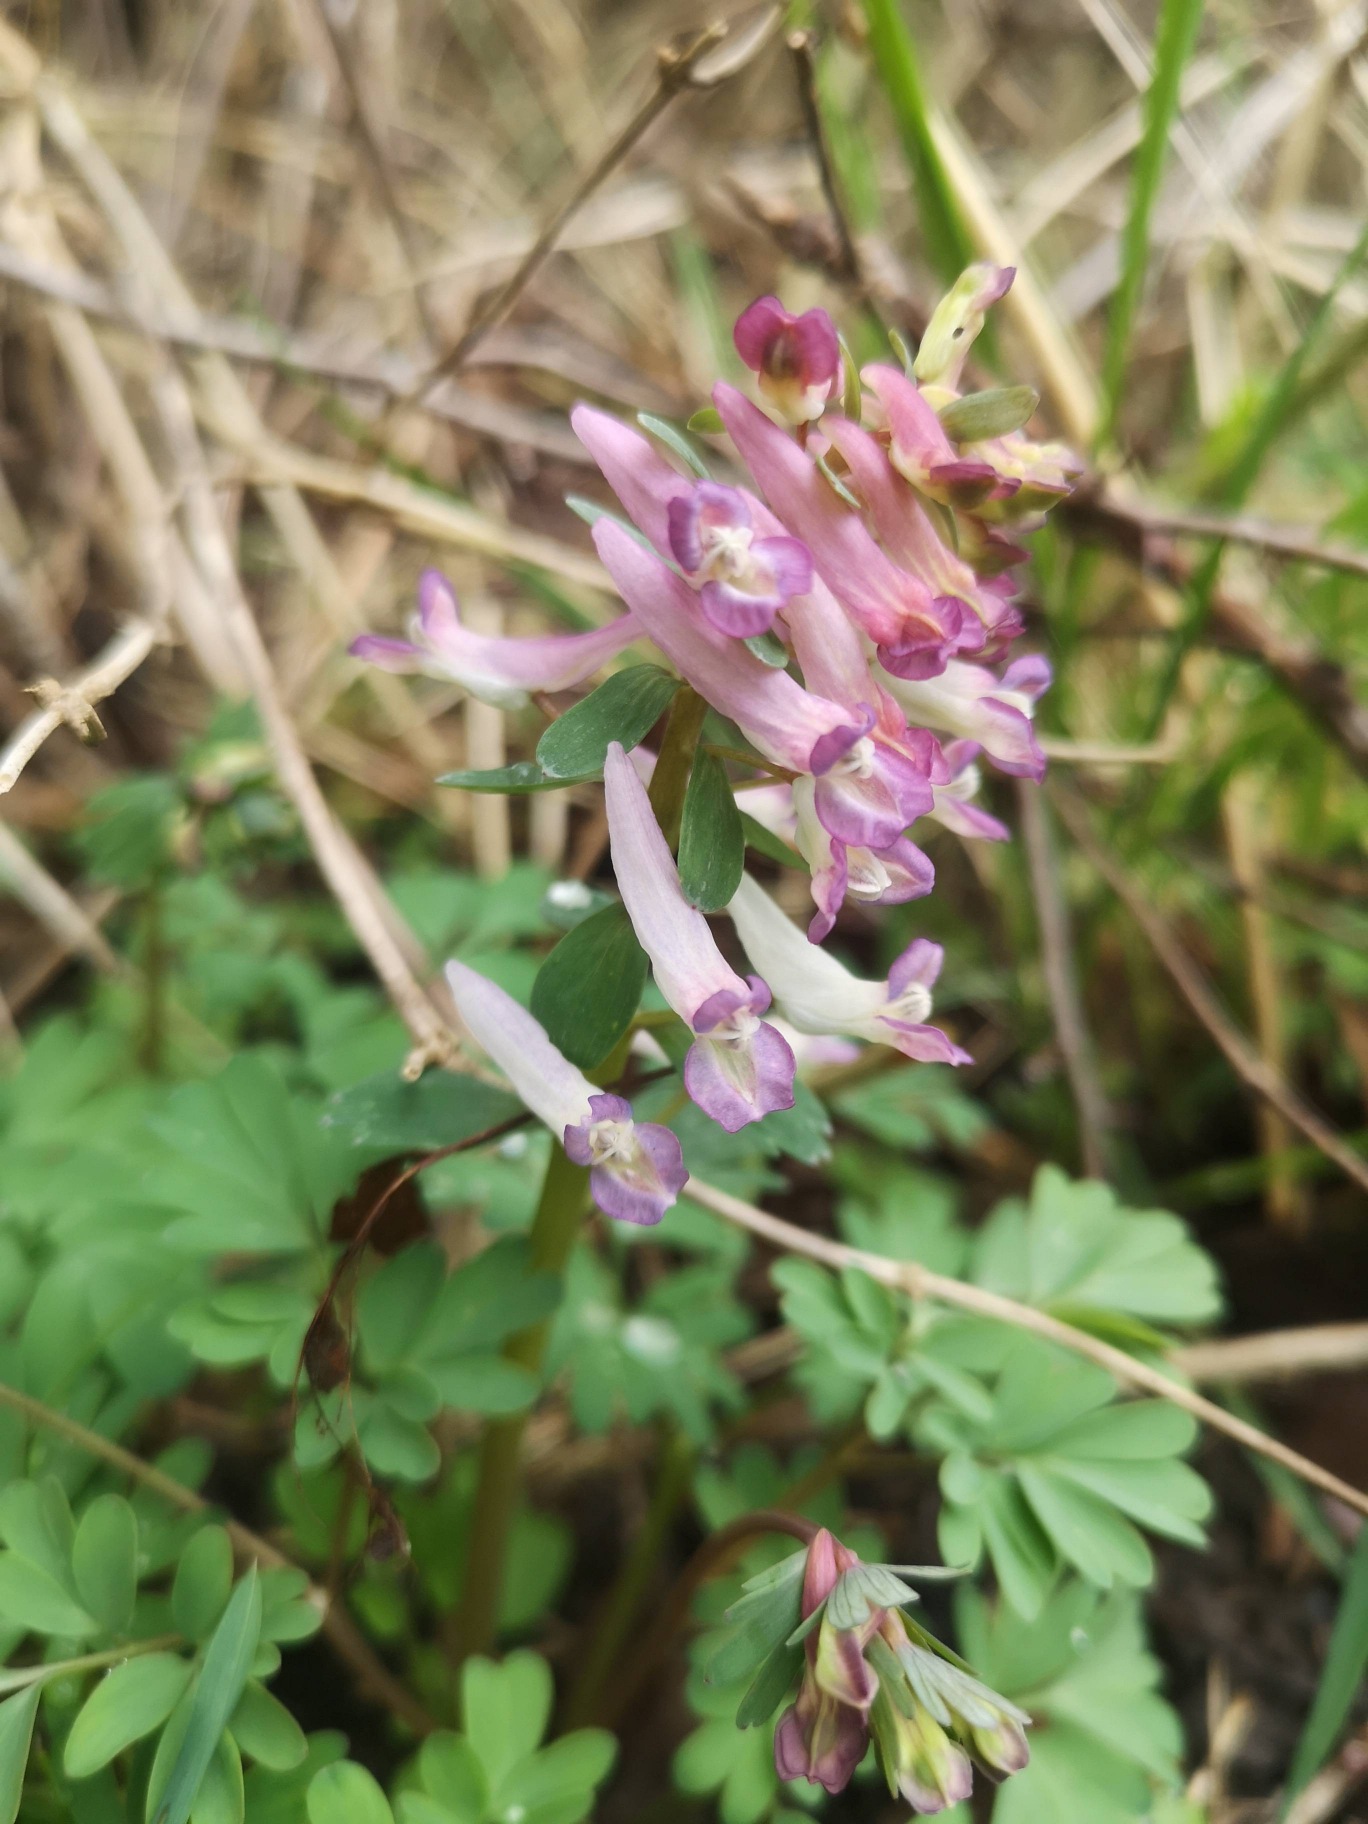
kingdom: Plantae
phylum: Tracheophyta
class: Magnoliopsida
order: Ranunculales
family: Papaveraceae
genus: Corydalis
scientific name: Corydalis solida
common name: Langstilket lærkespore
